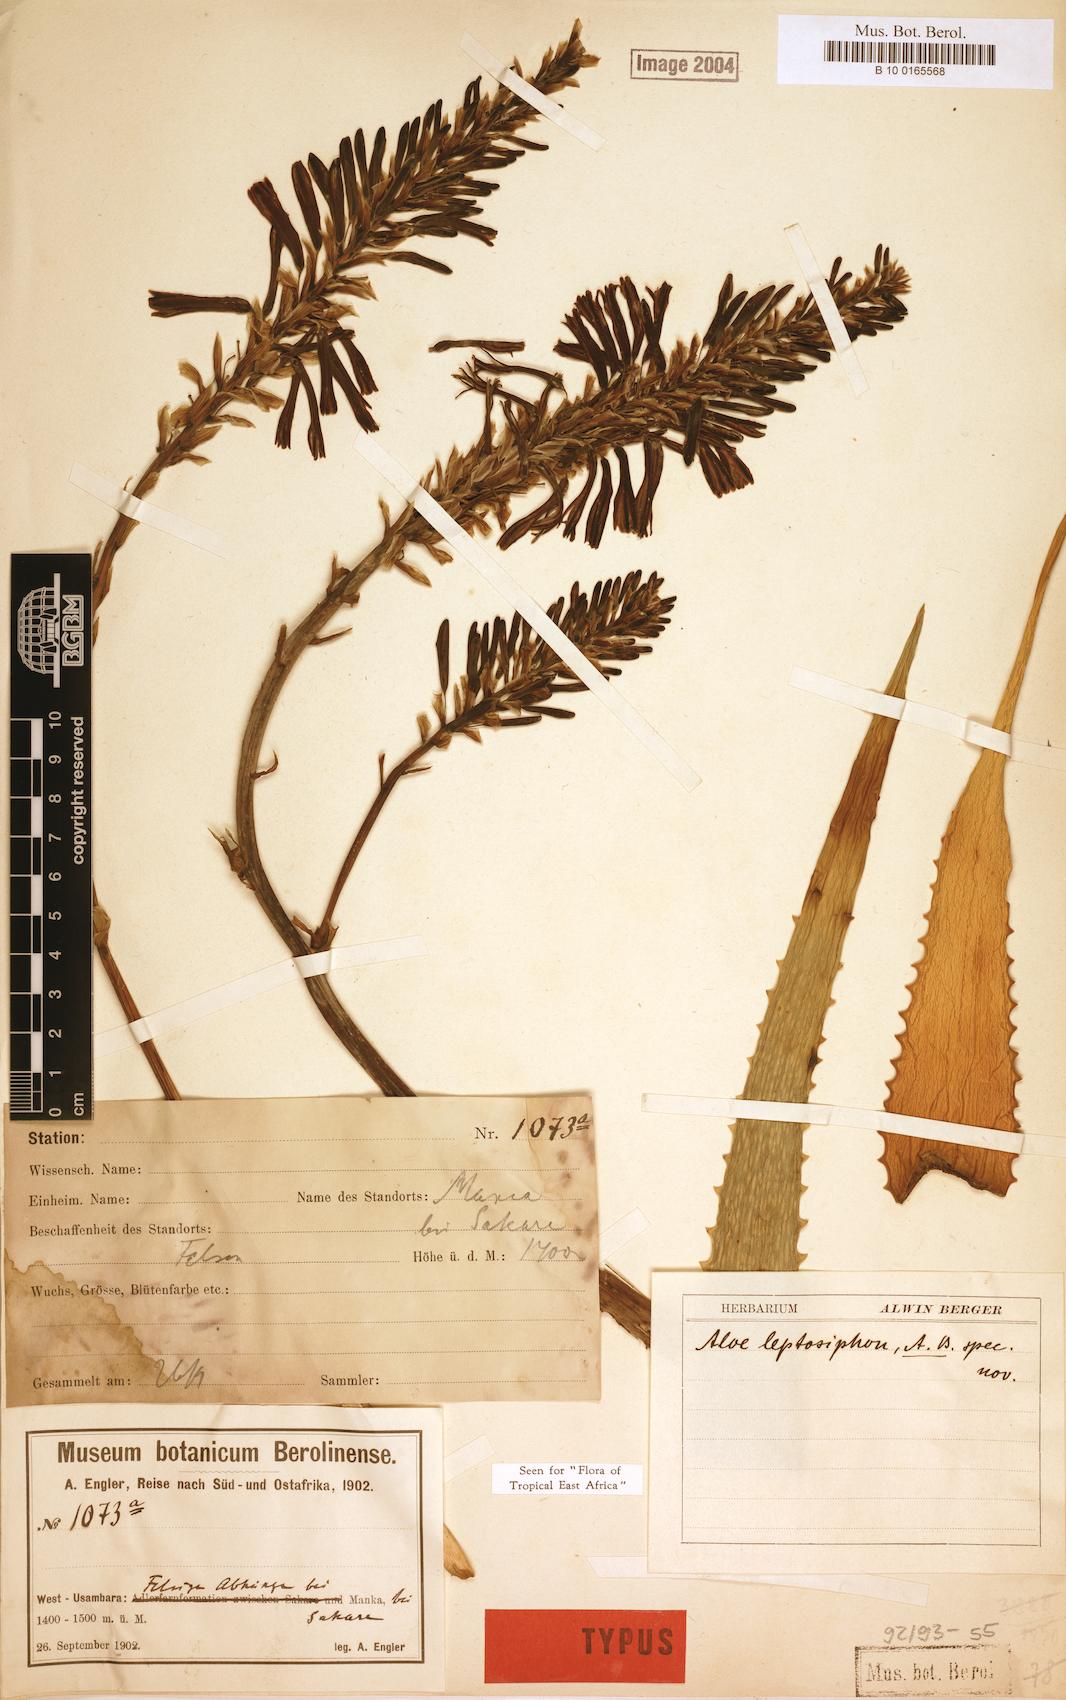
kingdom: Plantae
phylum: Tracheophyta
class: Liliopsida
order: Asparagales
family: Asphodelaceae
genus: Aloe
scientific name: Aloe leptosiphon
